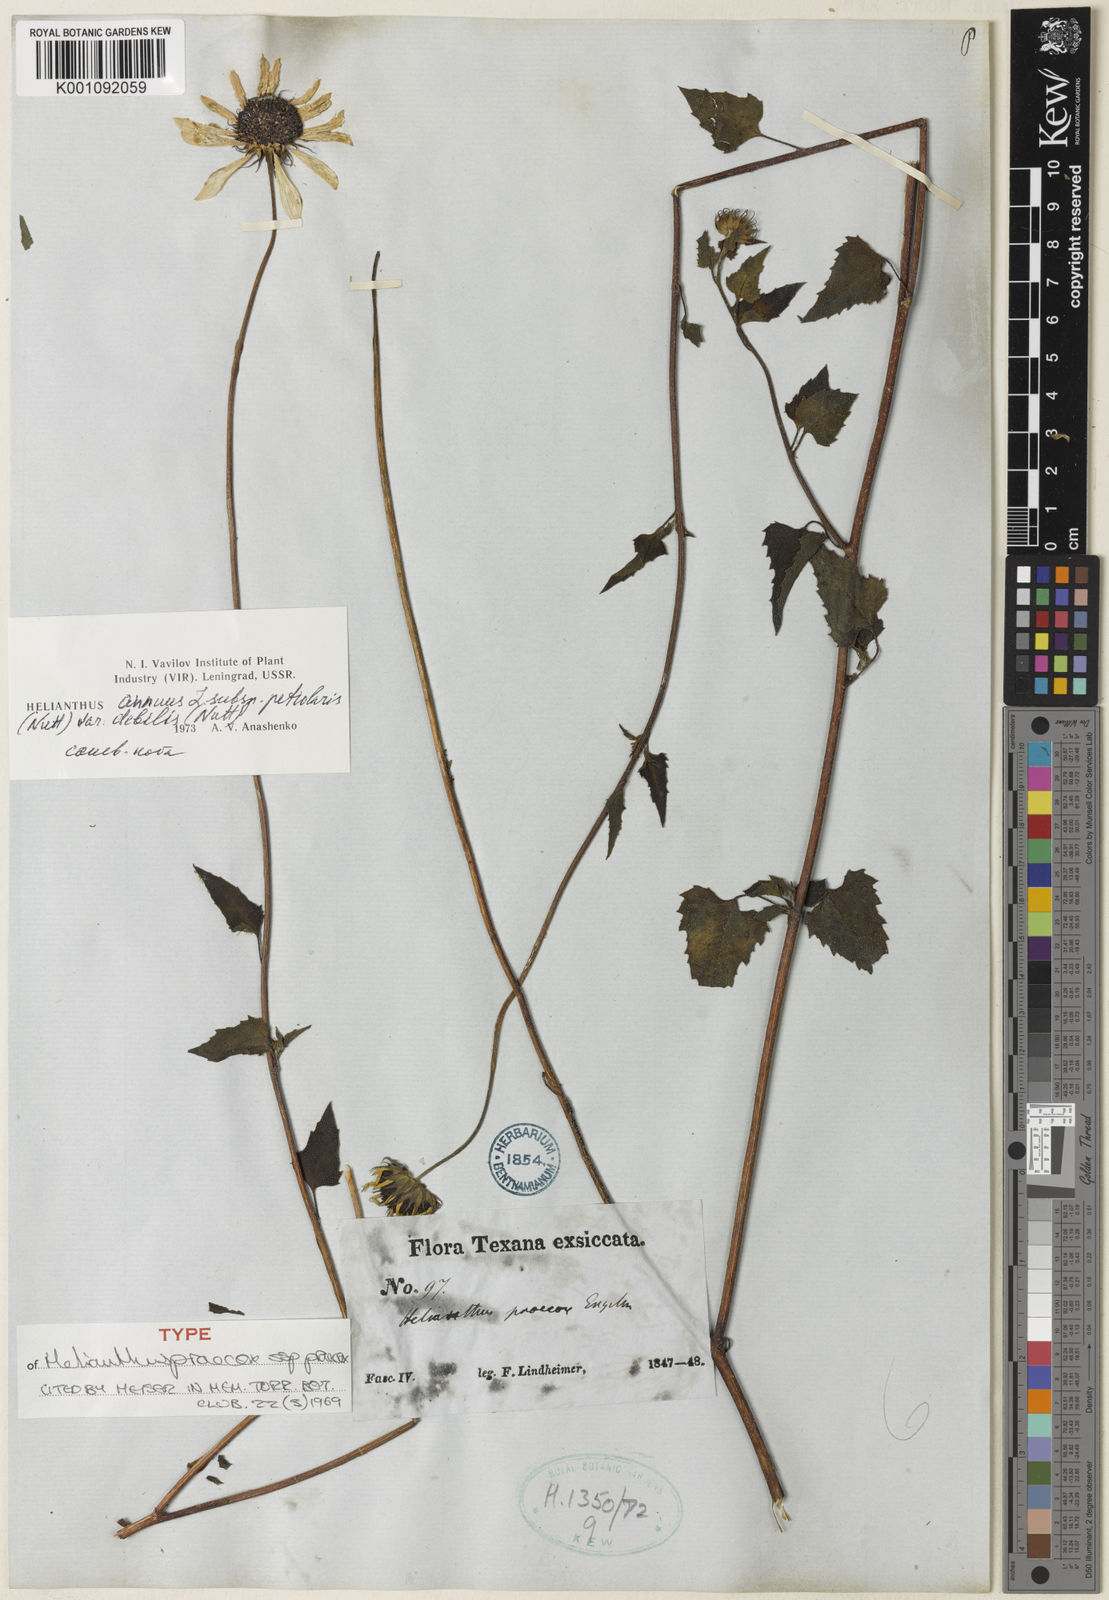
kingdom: Plantae
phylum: Tracheophyta
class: Magnoliopsida
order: Asterales
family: Asteraceae
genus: Helianthus
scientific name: Helianthus praecox
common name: Texas sunflower
